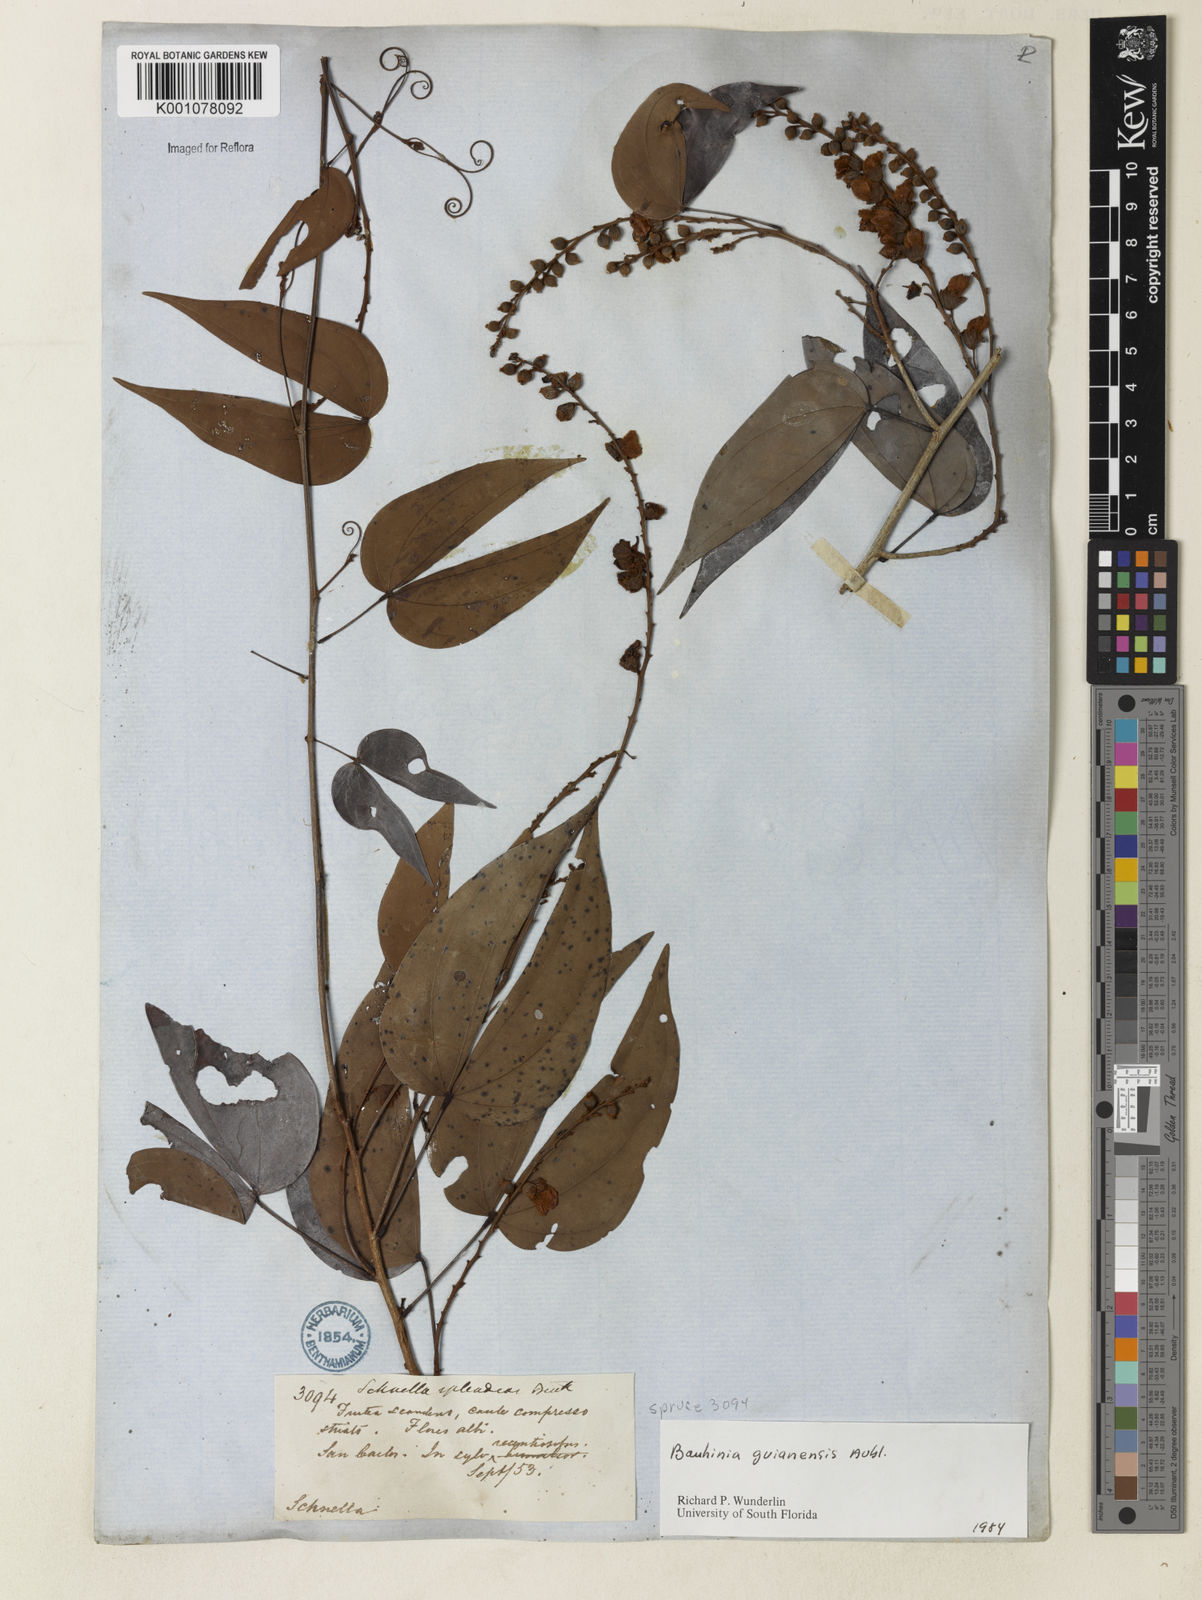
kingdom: Plantae
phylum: Tracheophyta
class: Magnoliopsida
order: Fabales
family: Fabaceae
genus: Schnella
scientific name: Schnella guianensis
